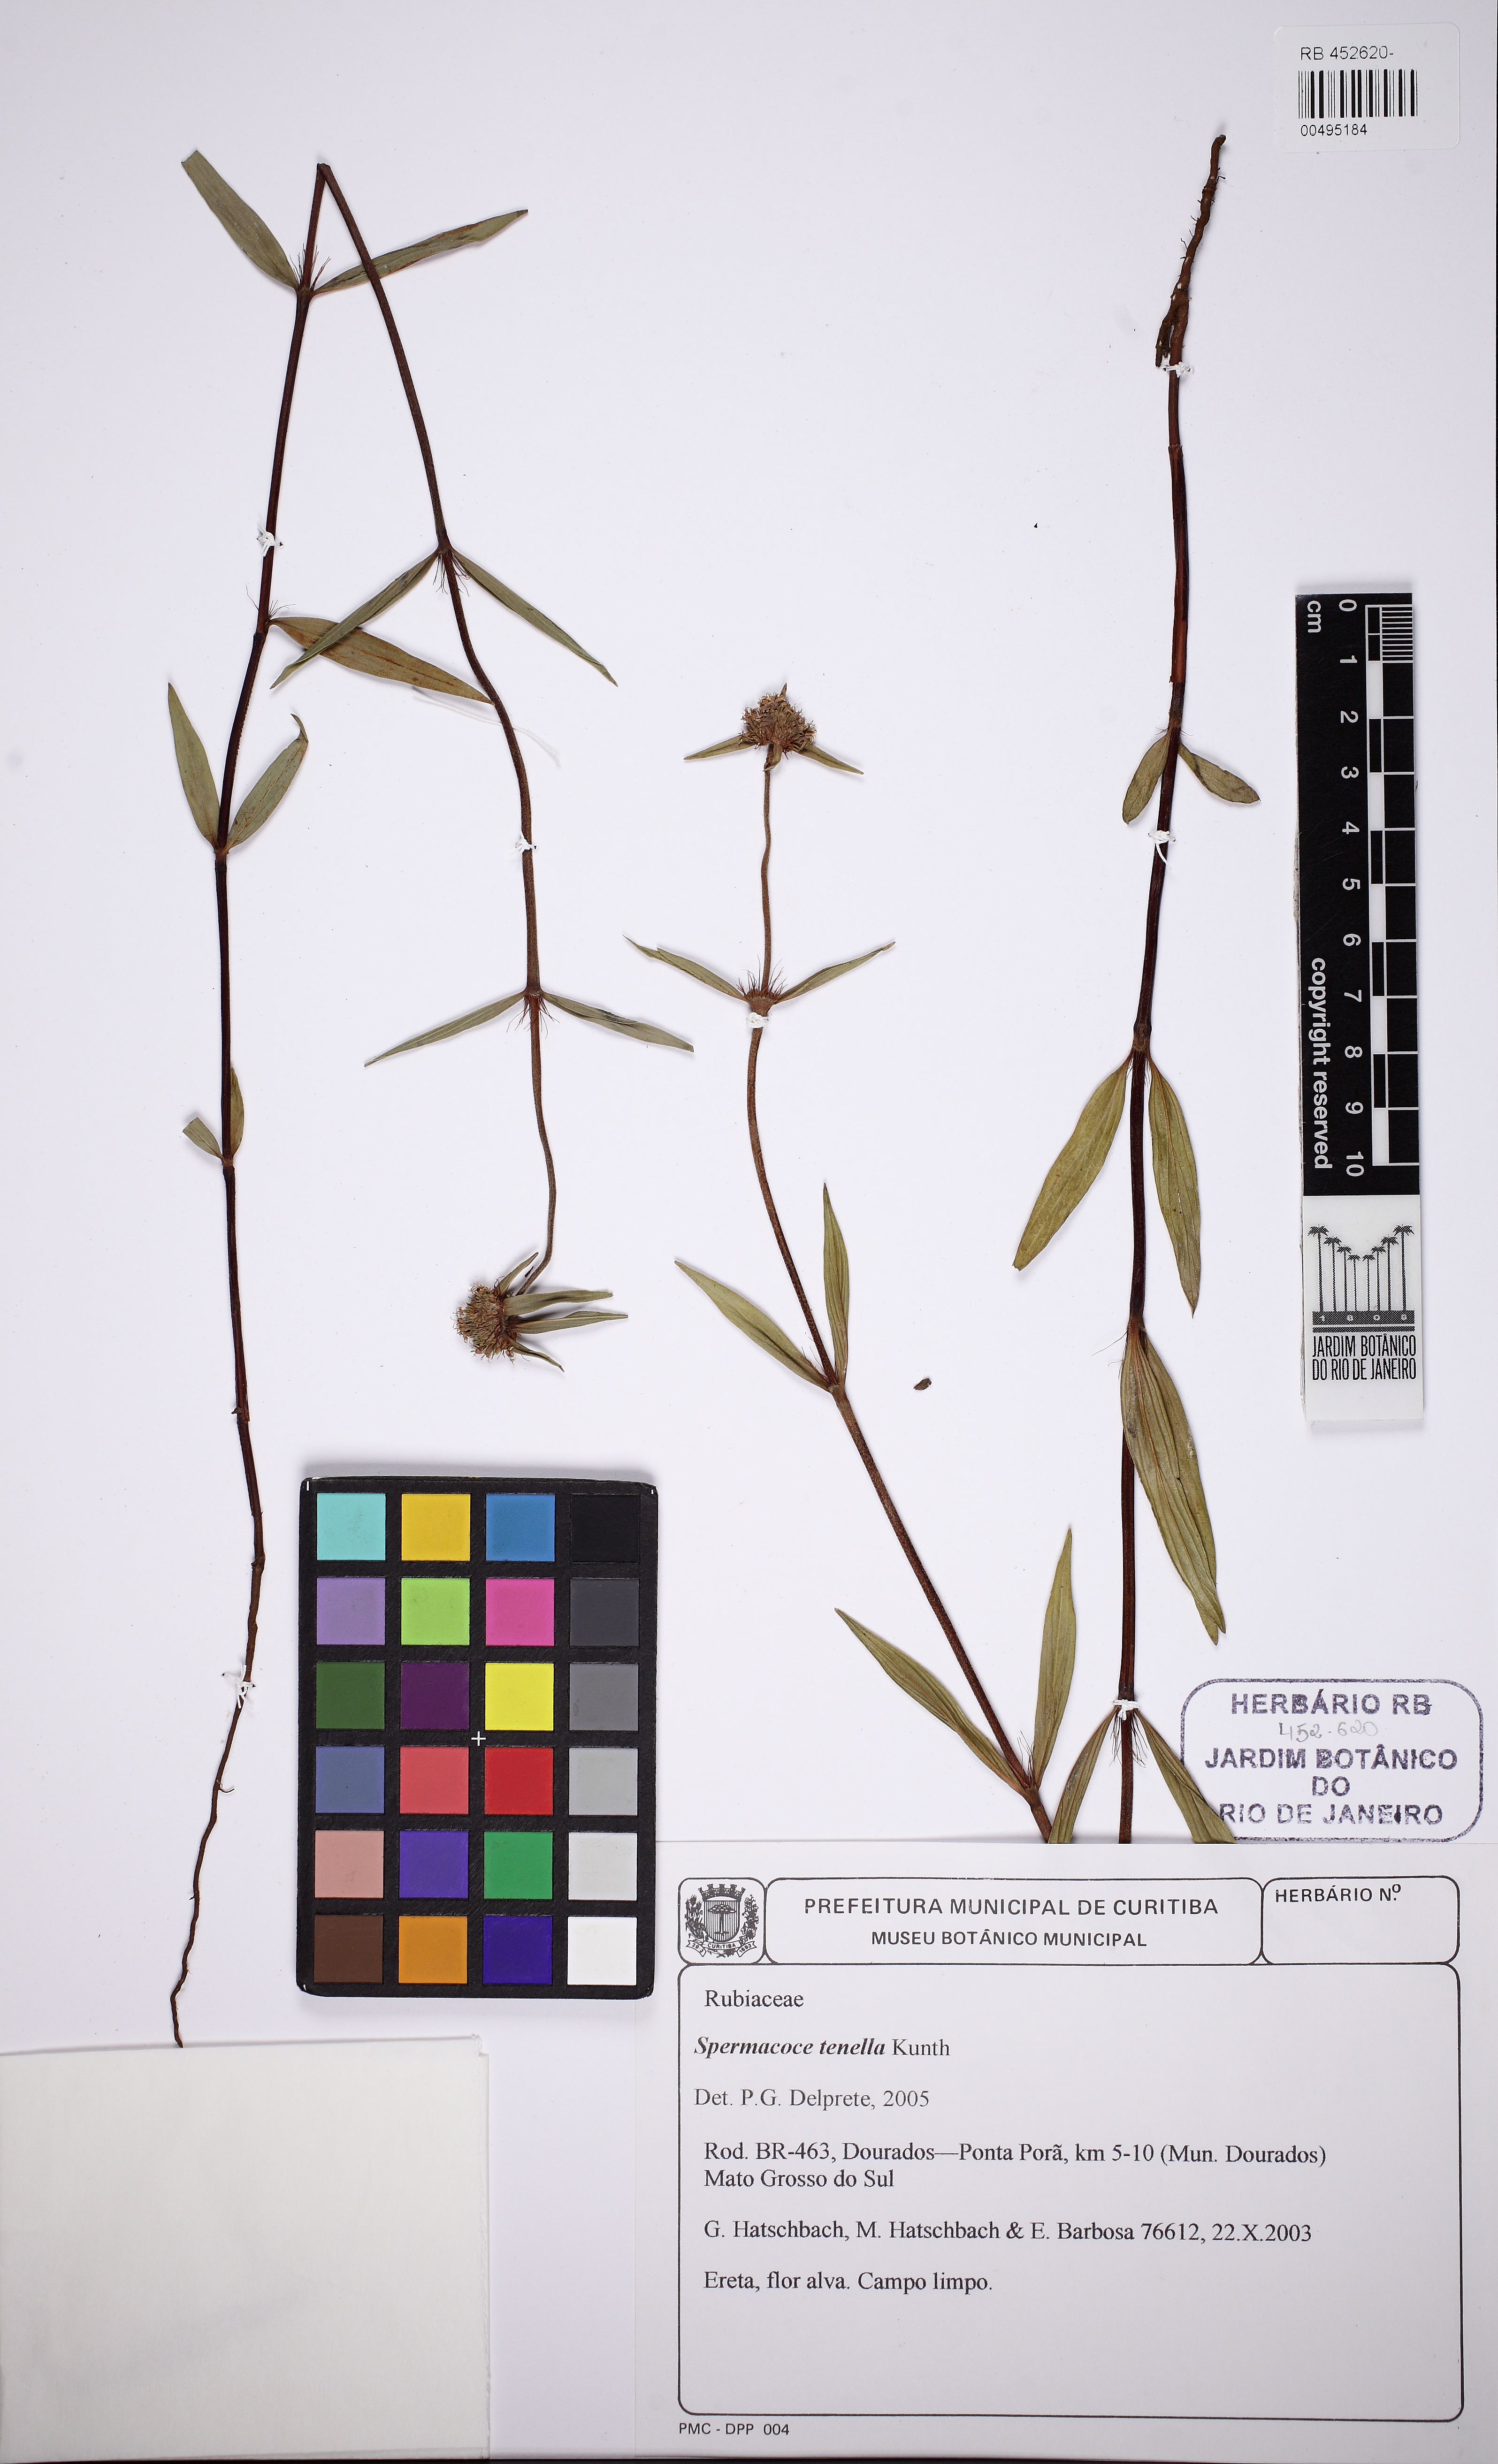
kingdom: Plantae
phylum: Tracheophyta
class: Magnoliopsida
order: Gentianales
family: Rubiaceae
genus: Spermacoce
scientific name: Spermacoce orinocensis
